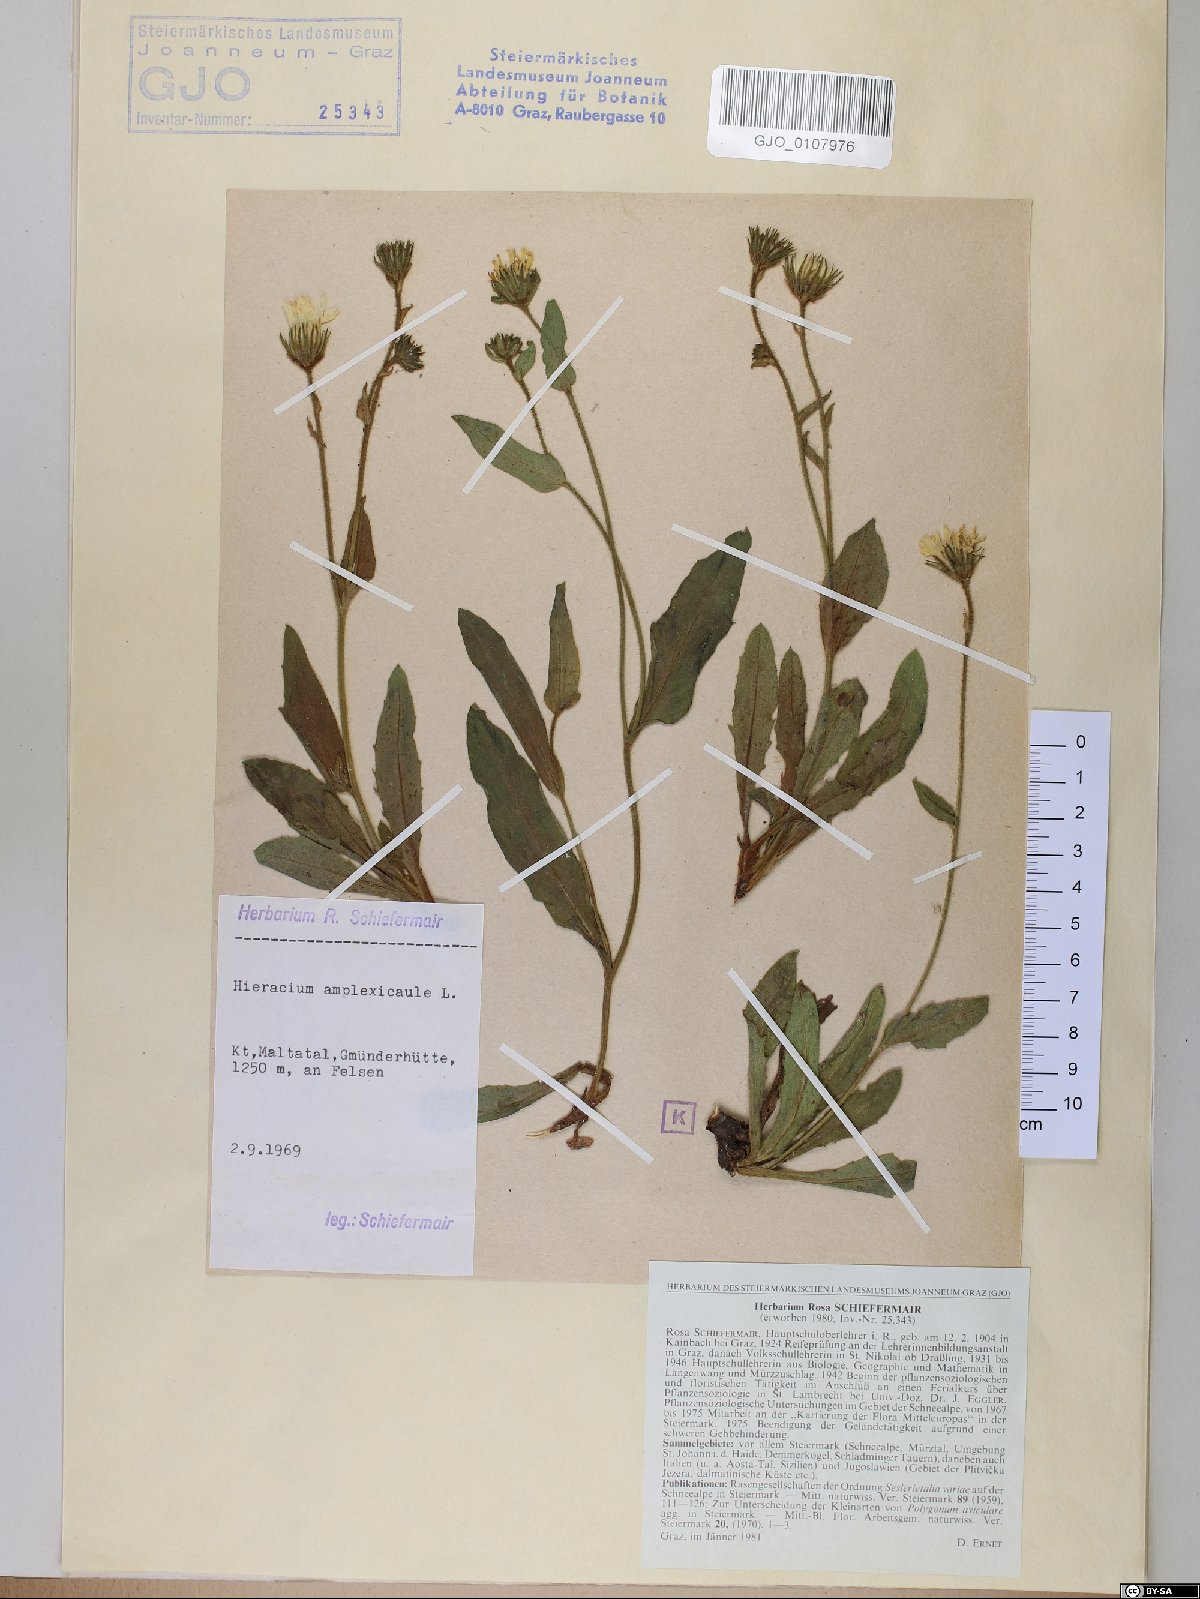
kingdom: Plantae
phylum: Tracheophyta
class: Magnoliopsida
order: Asterales
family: Asteraceae
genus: Hieracium
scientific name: Hieracium amplexicaule
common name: Sticky hawkweed
